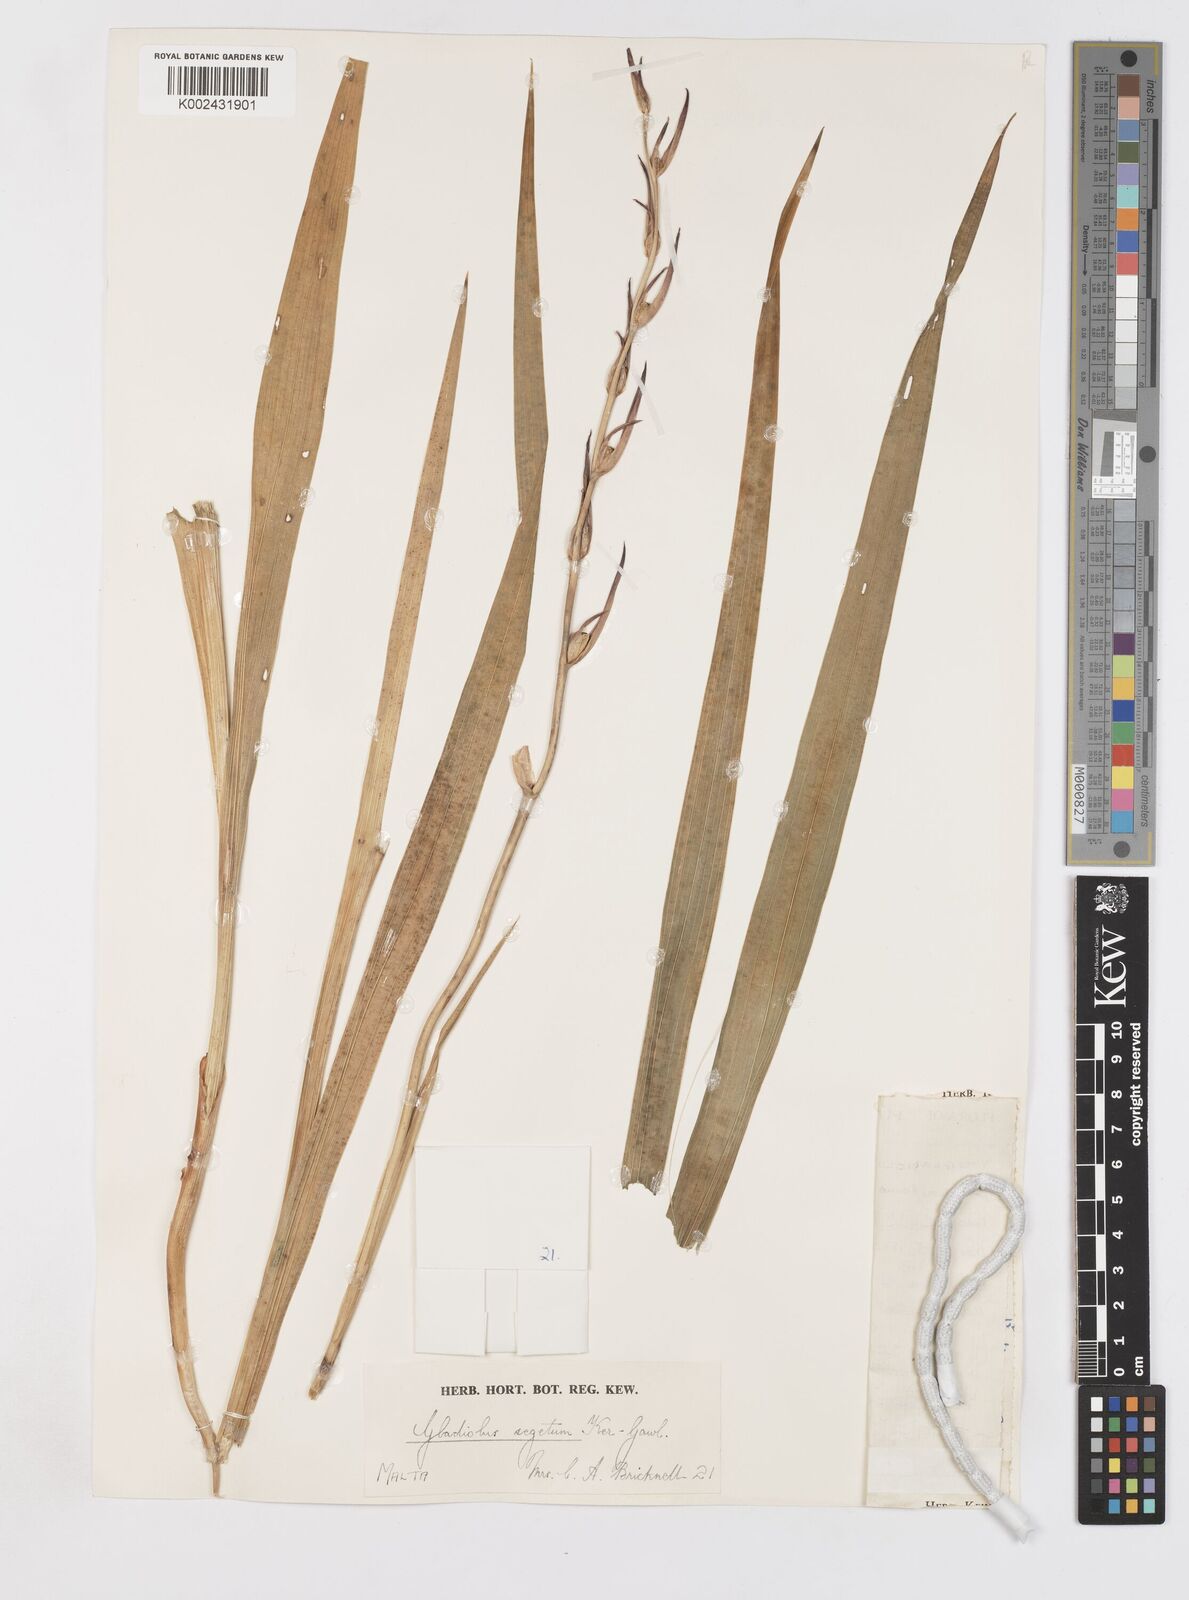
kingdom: Plantae
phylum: Tracheophyta
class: Liliopsida
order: Asparagales
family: Iridaceae
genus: Gladiolus
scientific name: Gladiolus italicus
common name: Field gladiolus
